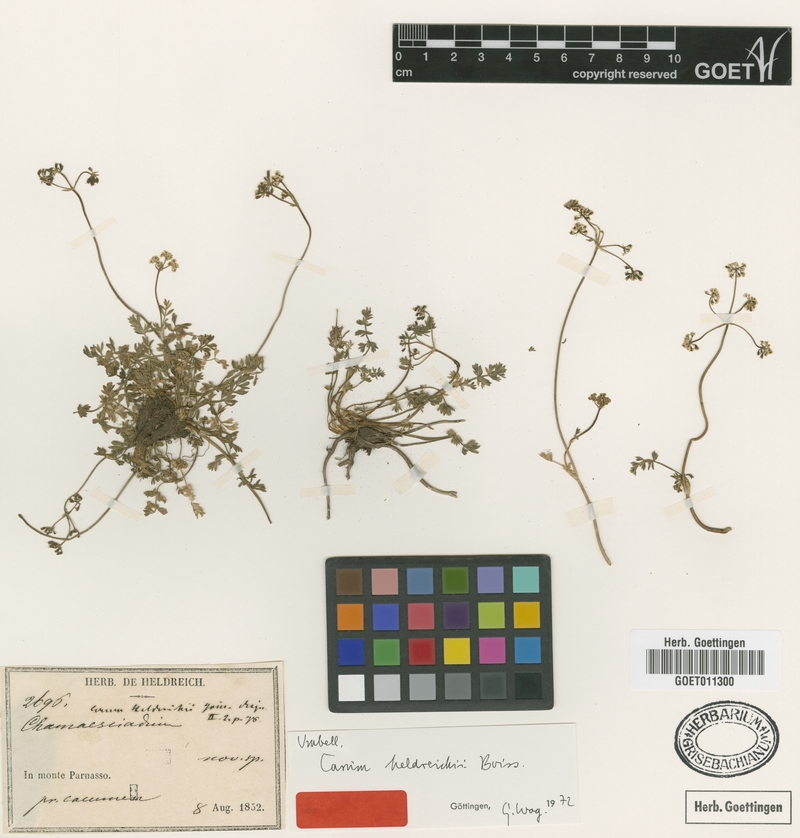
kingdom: Plantae
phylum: Tracheophyta
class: Magnoliopsida
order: Apiales
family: Apiaceae
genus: Carum
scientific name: Carum heldreichii
